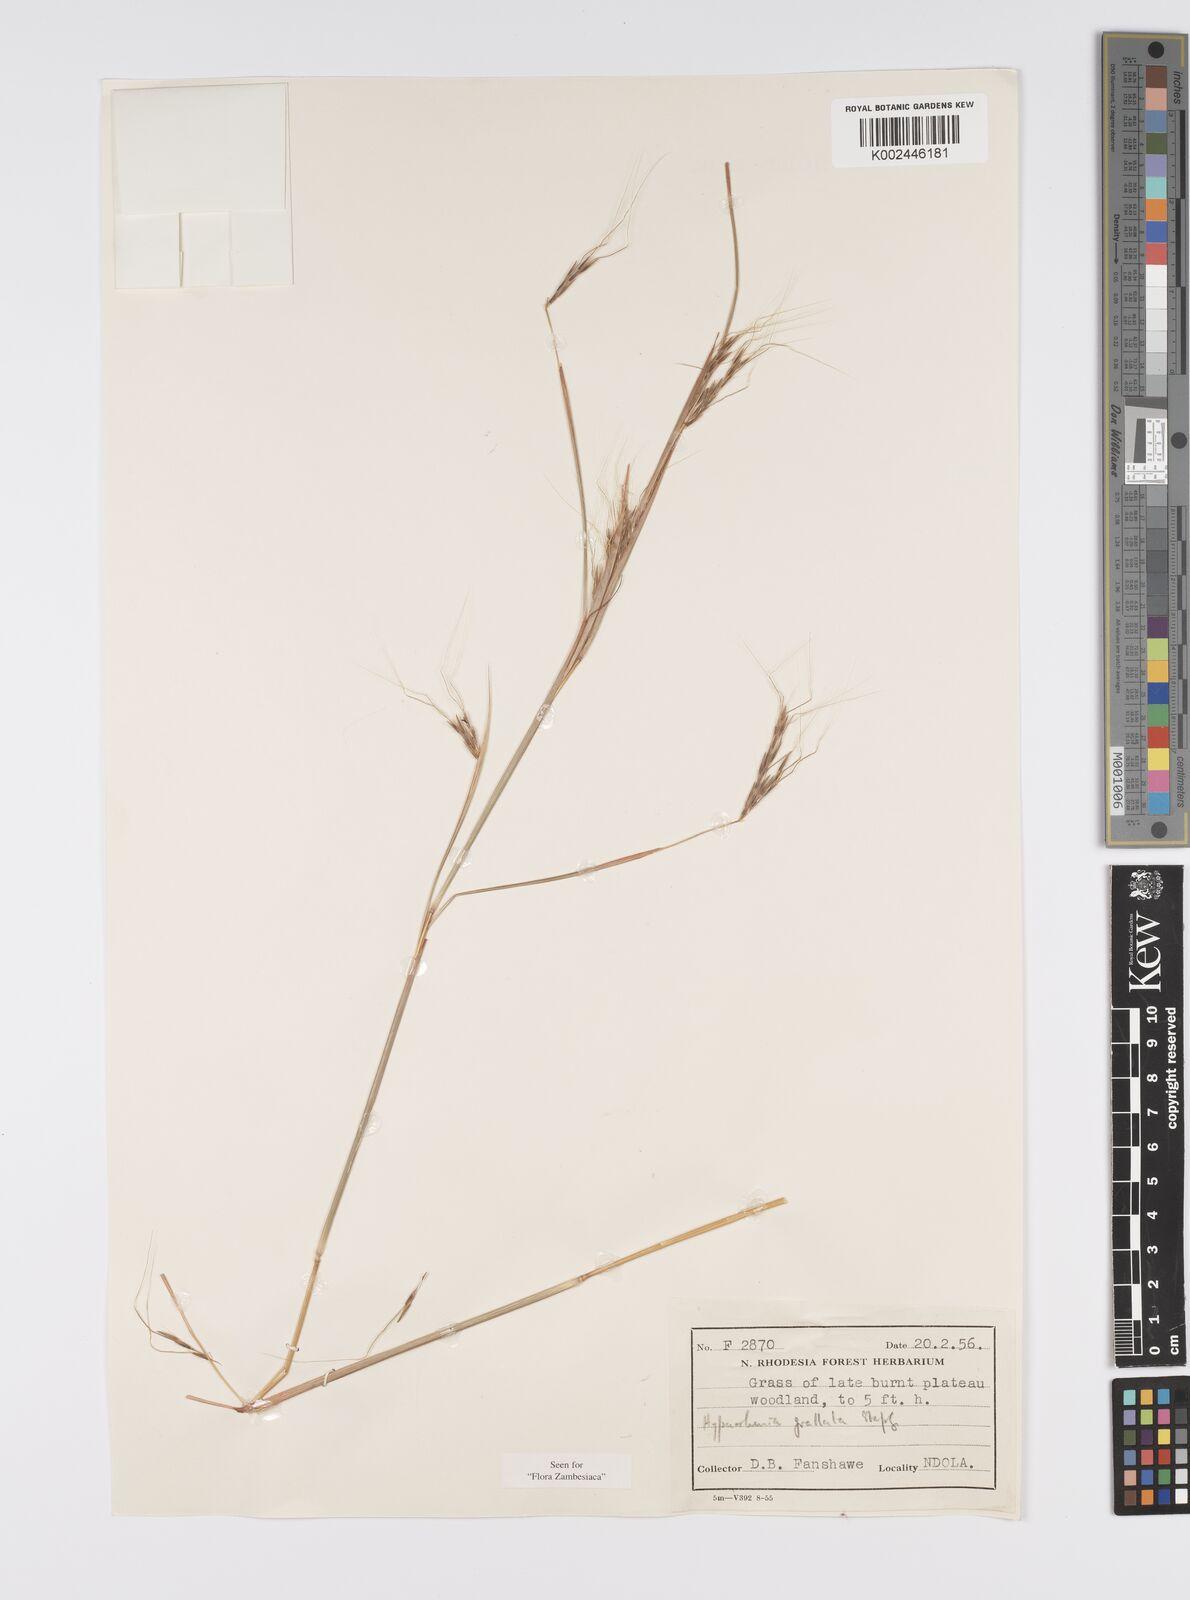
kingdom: Plantae
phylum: Tracheophyta
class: Liliopsida
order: Poales
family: Poaceae
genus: Elymandra
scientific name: Elymandra grallata
